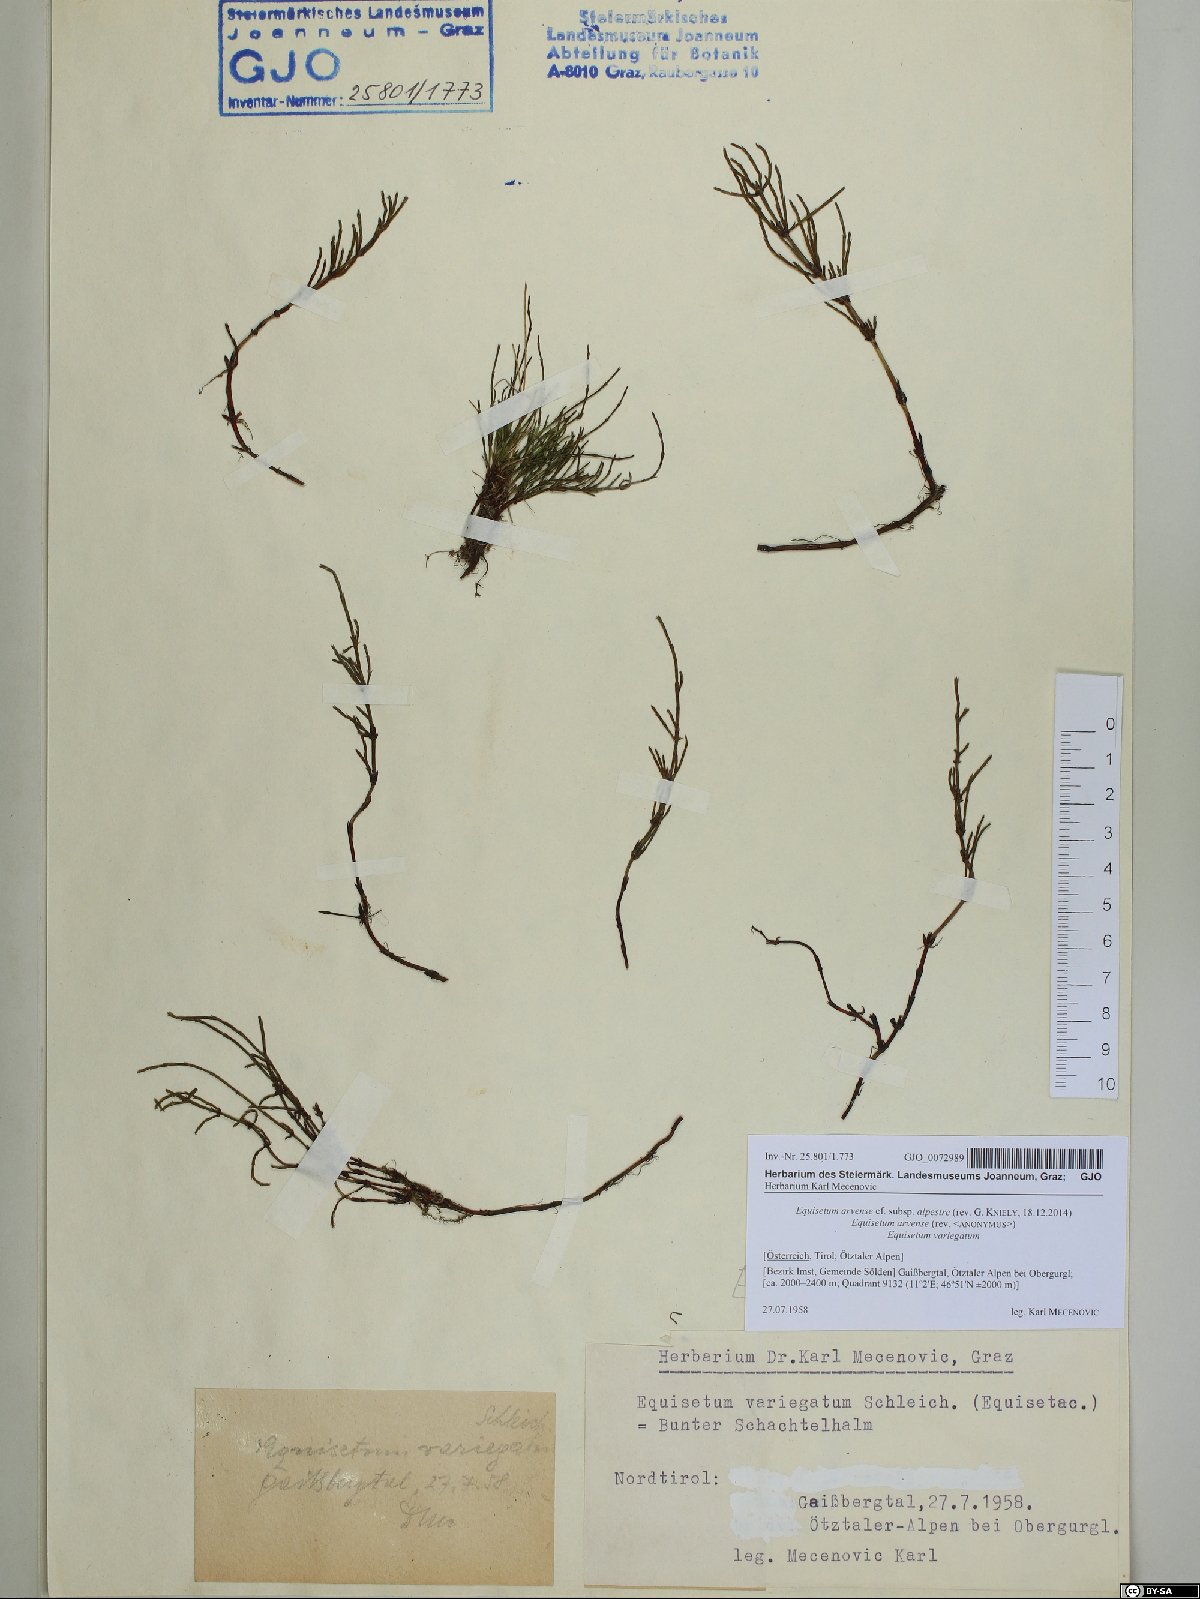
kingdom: Plantae
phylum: Tracheophyta
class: Polypodiopsida
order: Equisetales
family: Equisetaceae
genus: Equisetum
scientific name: Equisetum arvense
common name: Field horsetail
